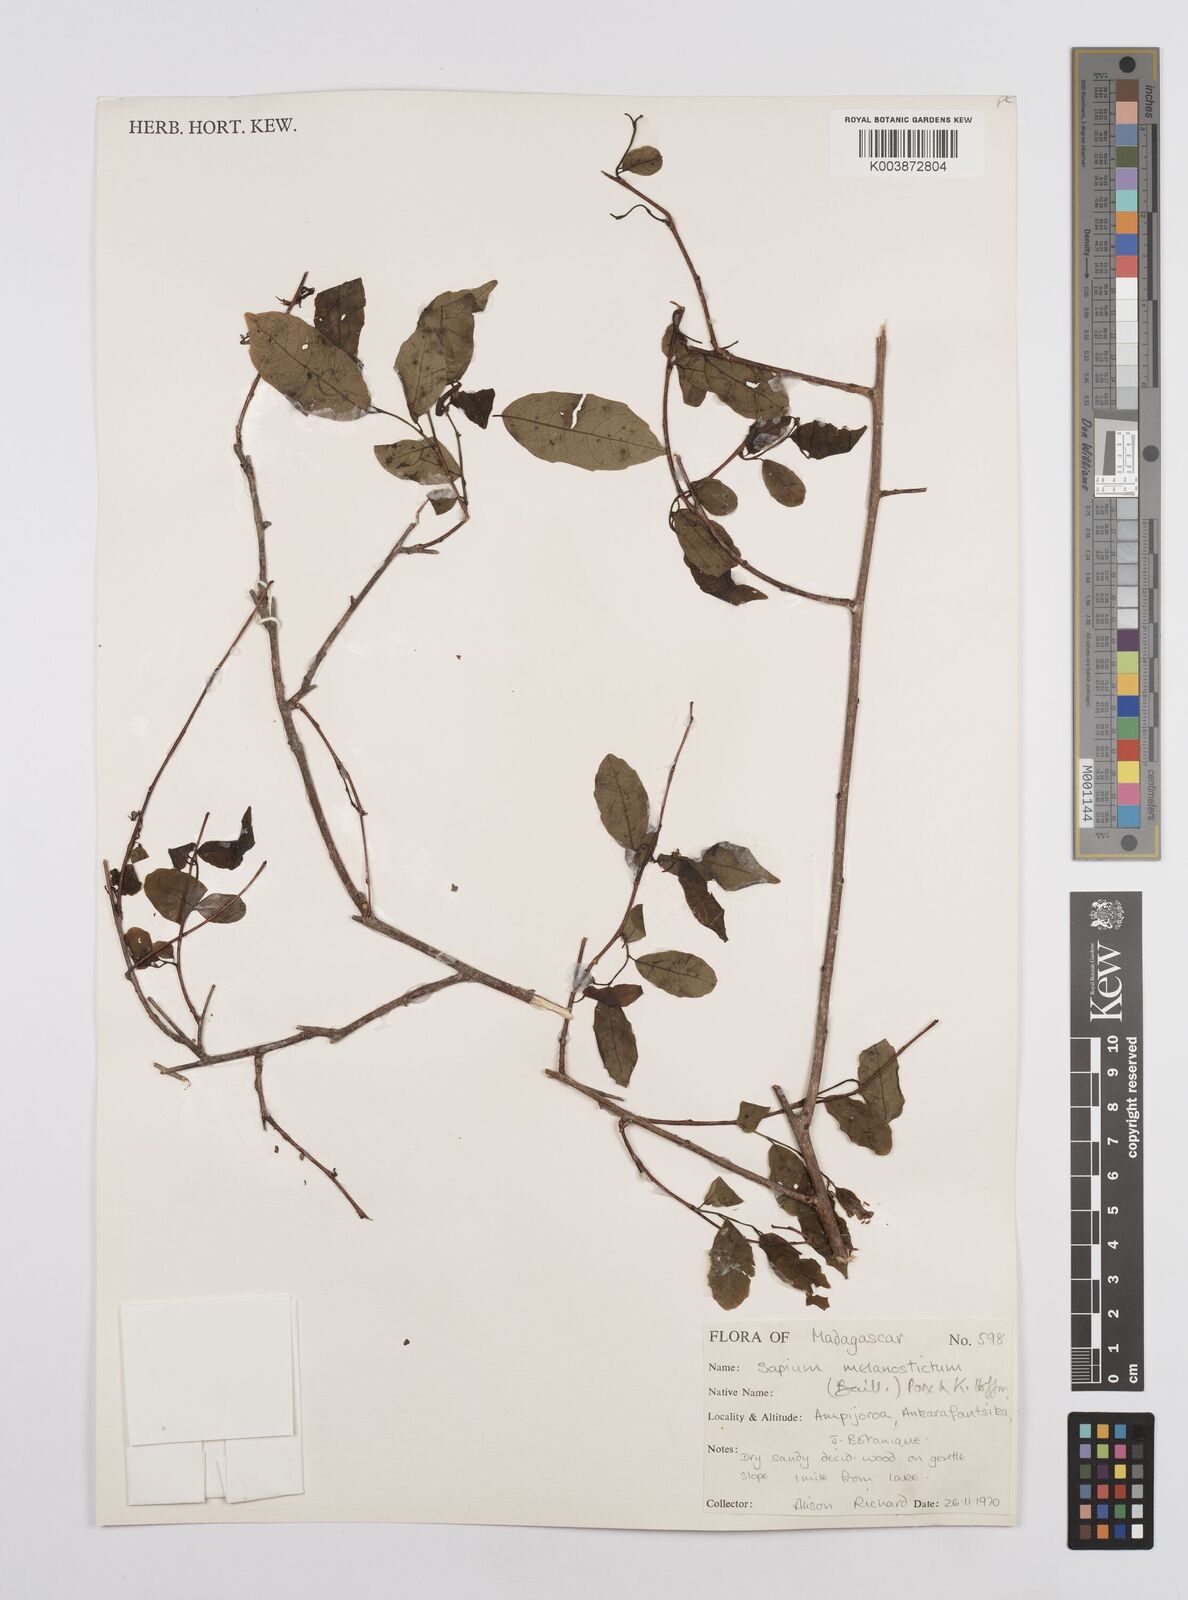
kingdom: Plantae
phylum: Tracheophyta
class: Magnoliopsida
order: Malpighiales
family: Euphorbiaceae
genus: Sclerocroton
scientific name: Sclerocroton melanostictus
